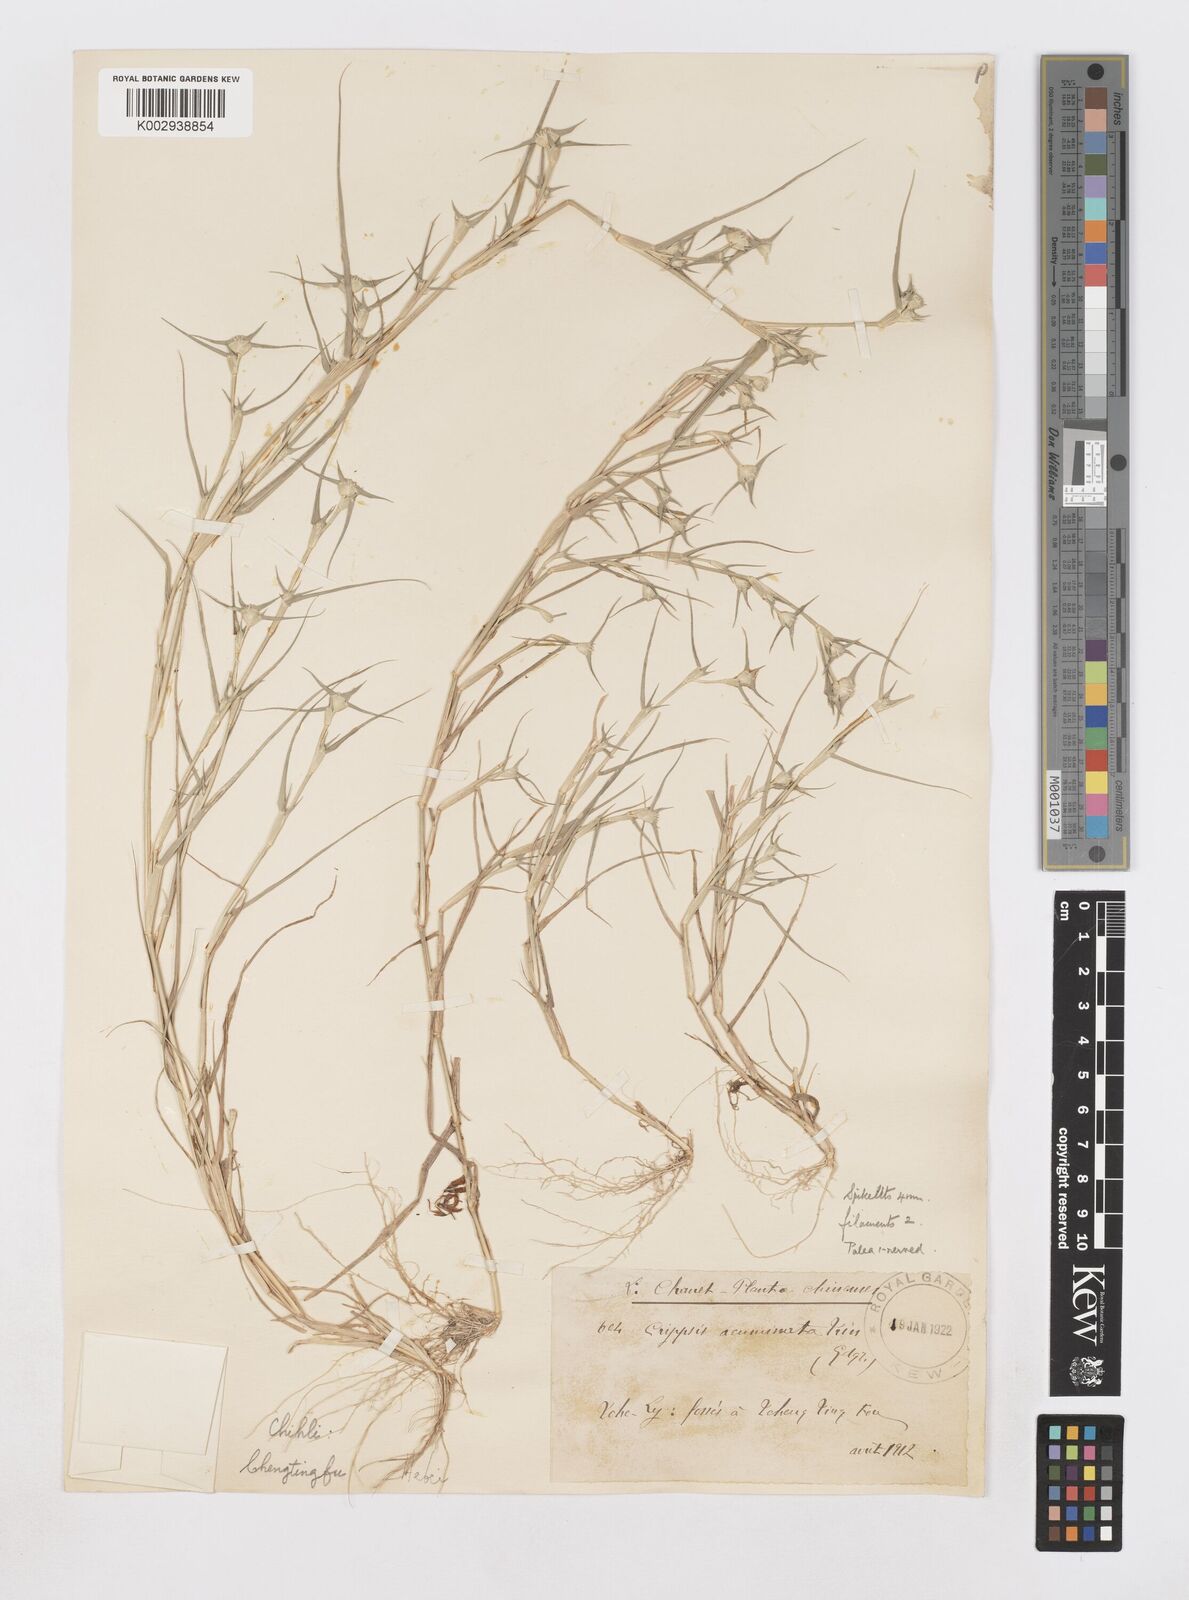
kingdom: Plantae
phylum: Tracheophyta
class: Liliopsida
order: Poales
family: Poaceae
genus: Sporobolus
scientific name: Sporobolus aculeatus
